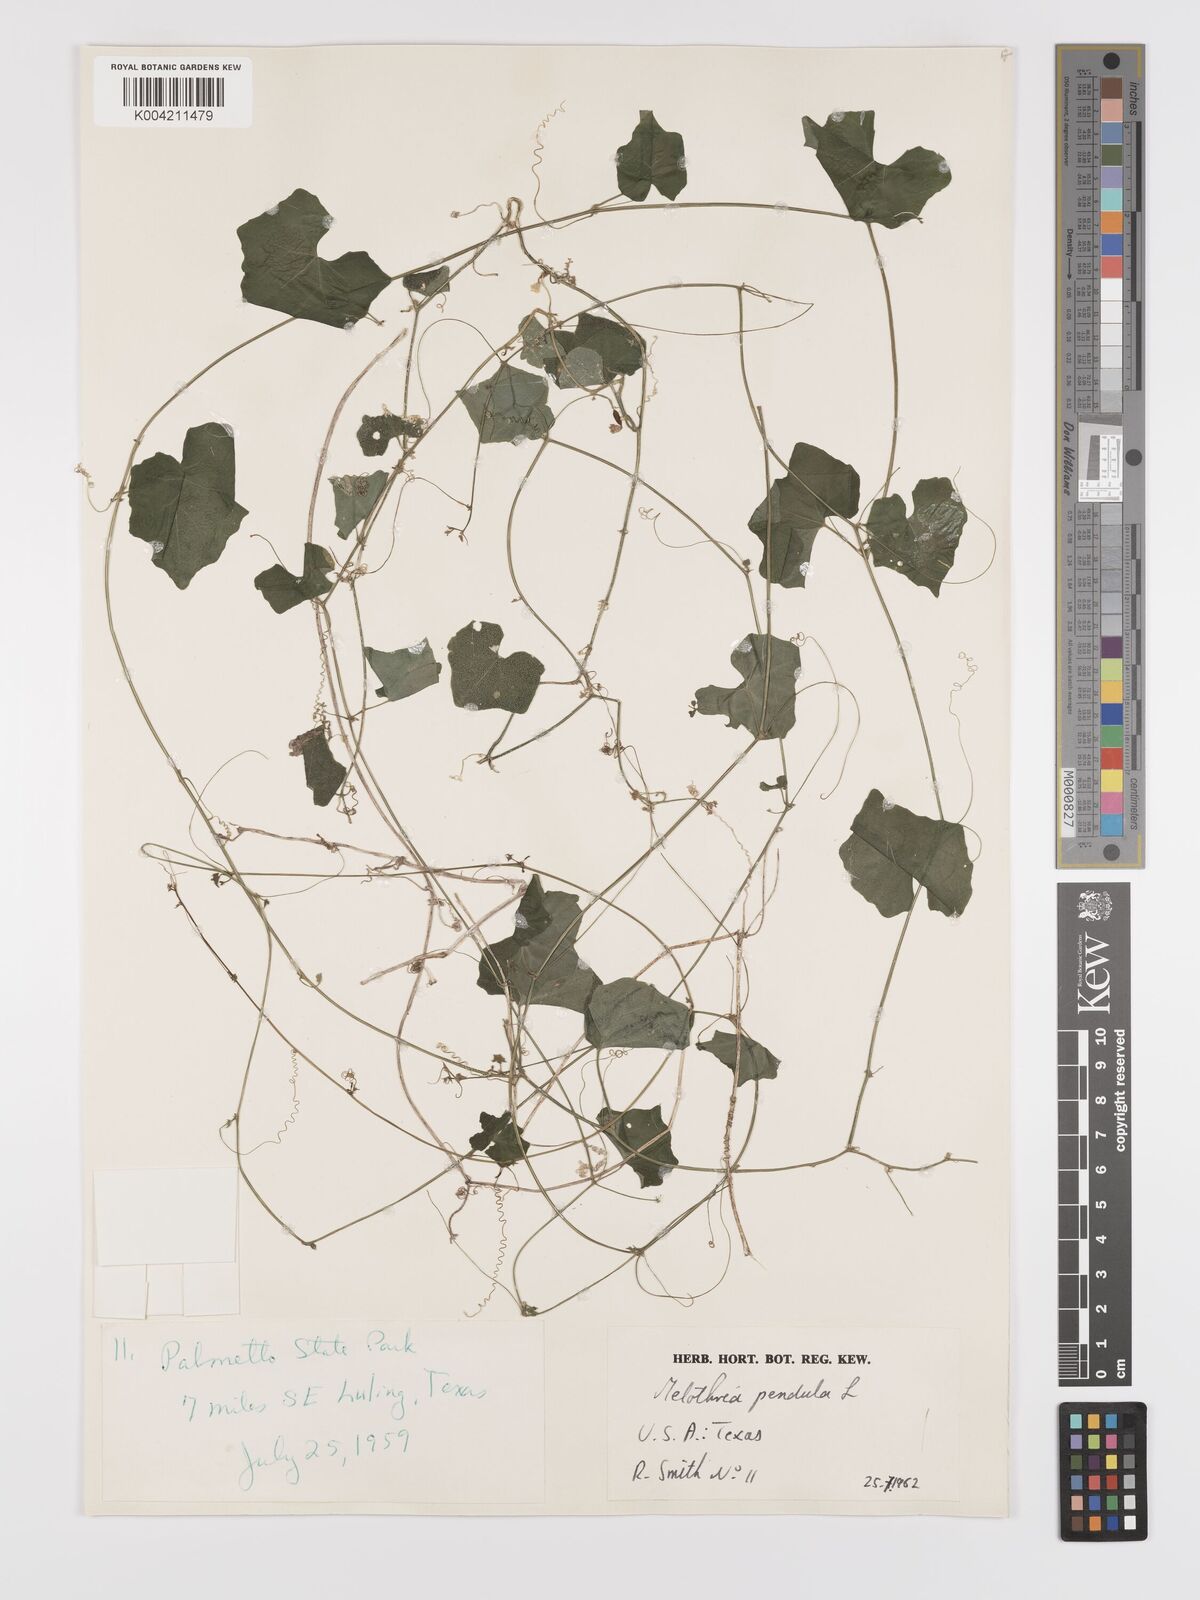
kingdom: Plantae
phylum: Tracheophyta
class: Magnoliopsida
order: Cucurbitales
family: Cucurbitaceae
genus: Melothria
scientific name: Melothria pendula
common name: Creeping-cucumber
